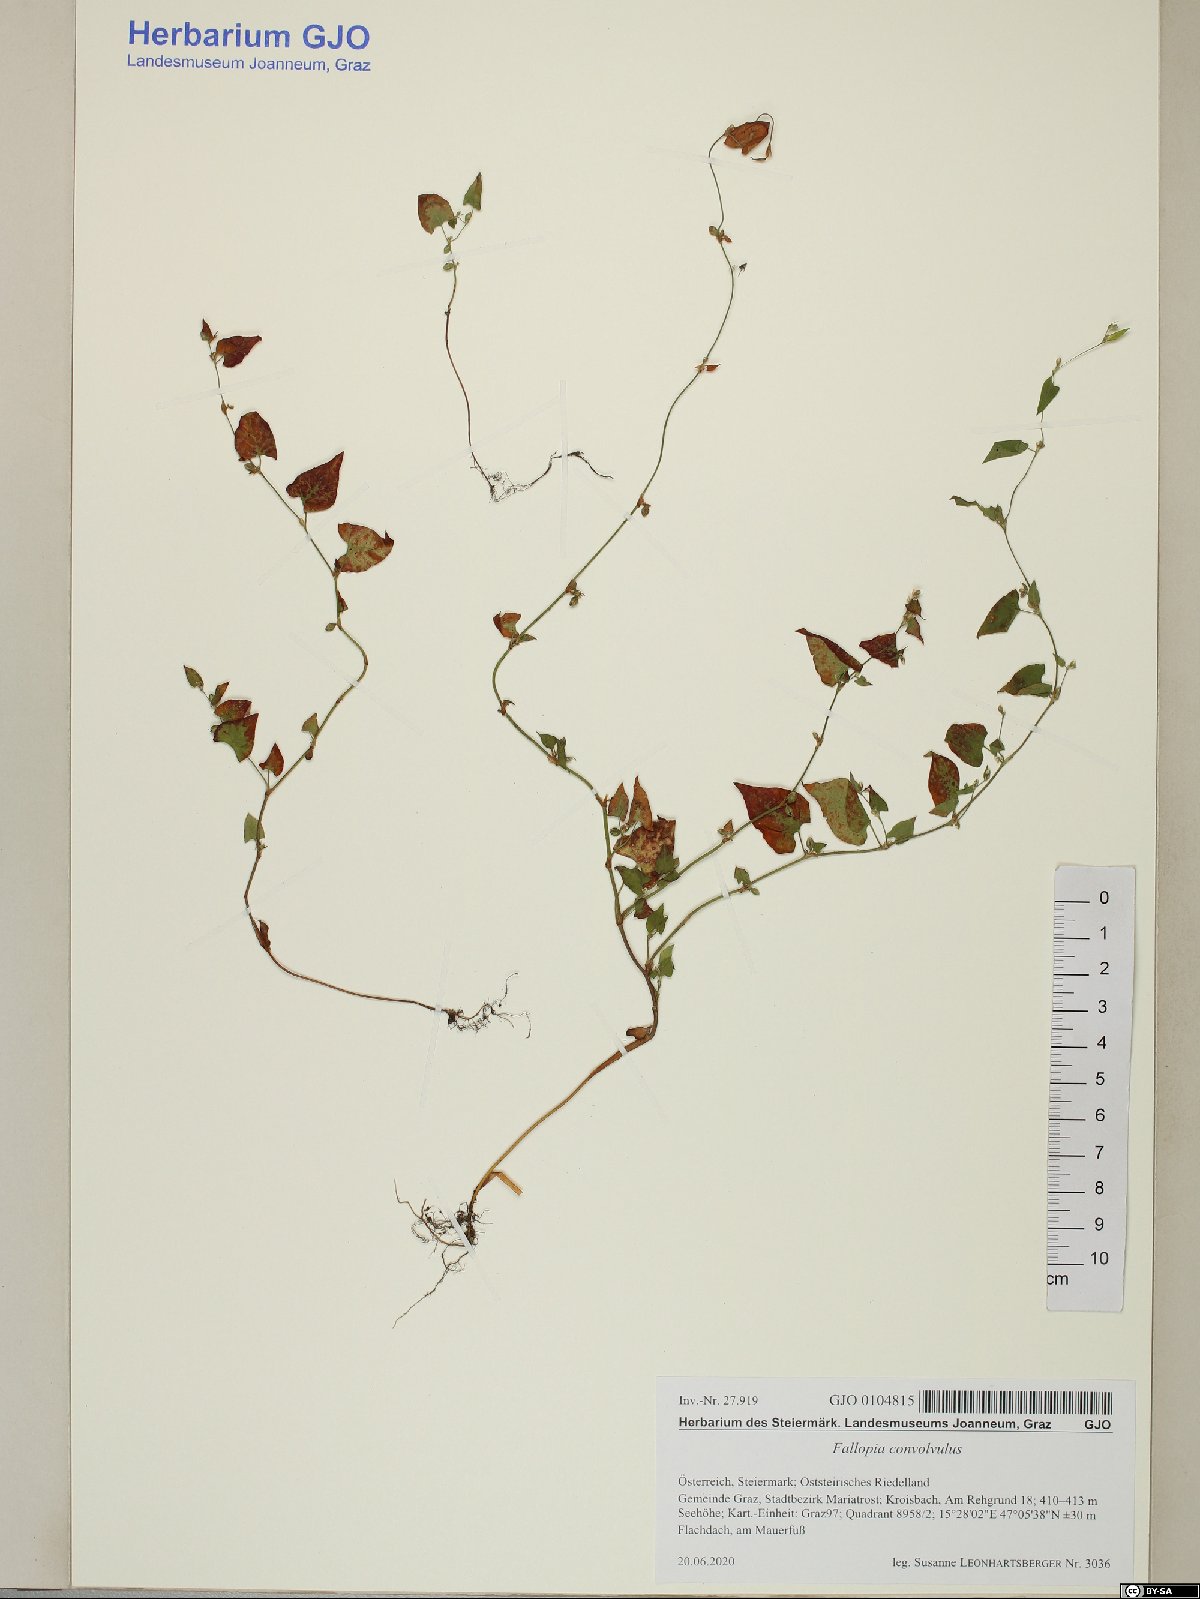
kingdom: Plantae
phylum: Tracheophyta
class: Magnoliopsida
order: Caryophyllales
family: Polygonaceae
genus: Fallopia
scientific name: Fallopia convolvulus
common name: Black bindweed
